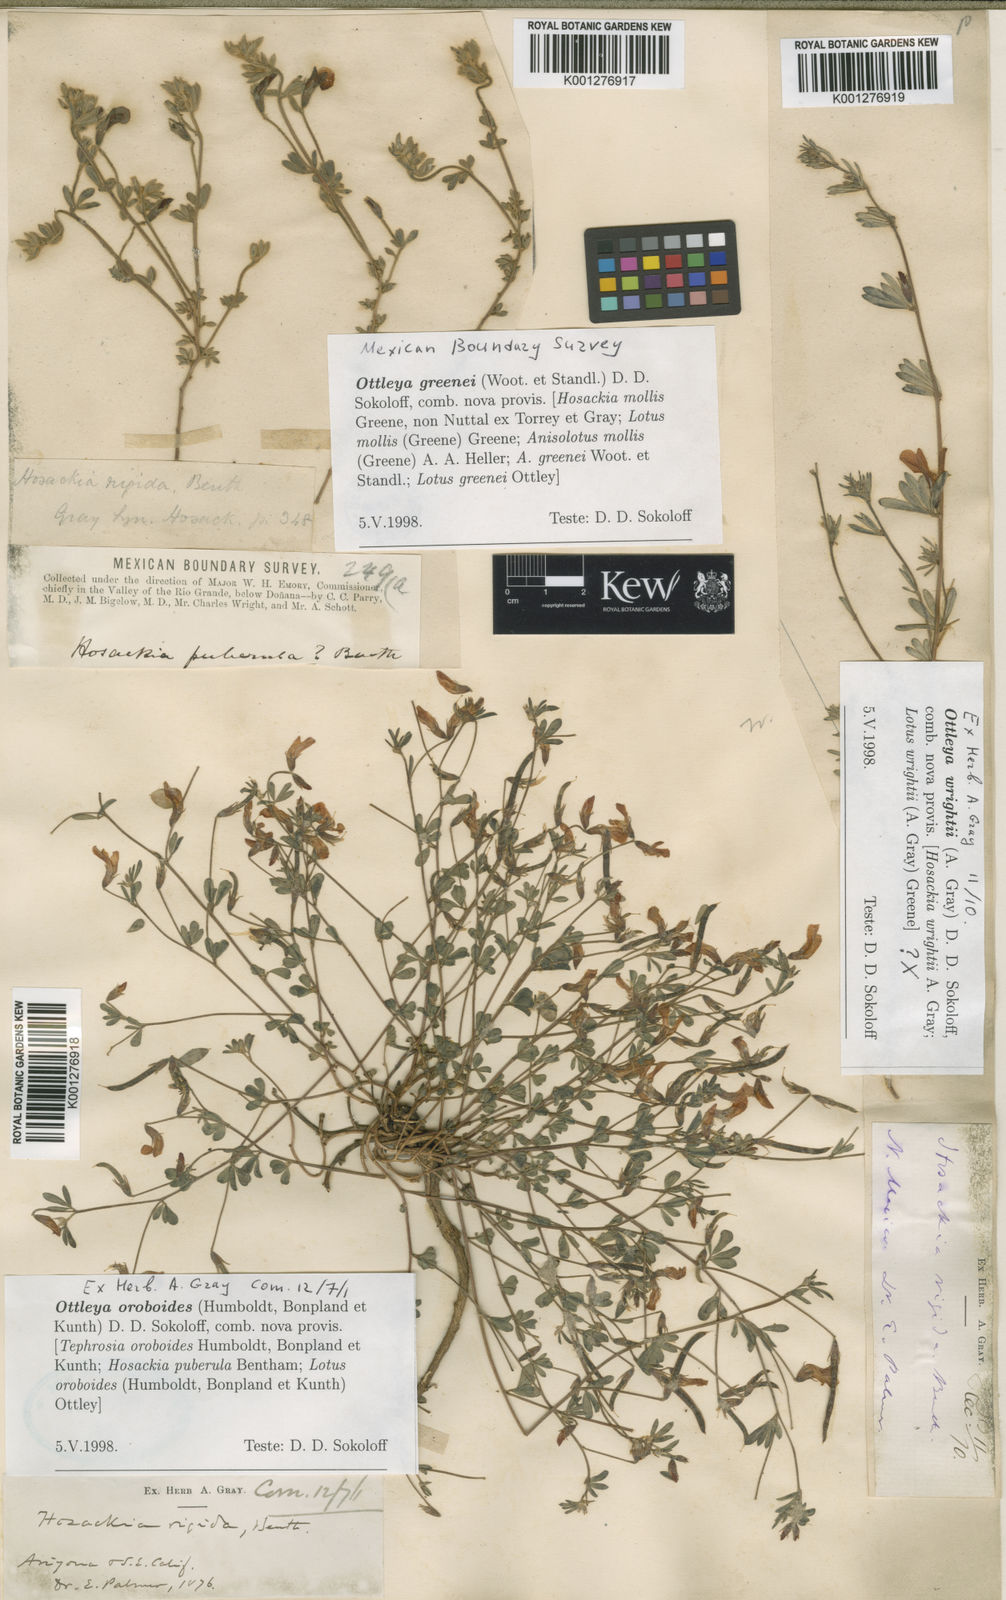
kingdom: Plantae
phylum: Tracheophyta
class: Magnoliopsida
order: Fabales
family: Fabaceae
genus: Acmispon
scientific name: Acmispon oroboides
